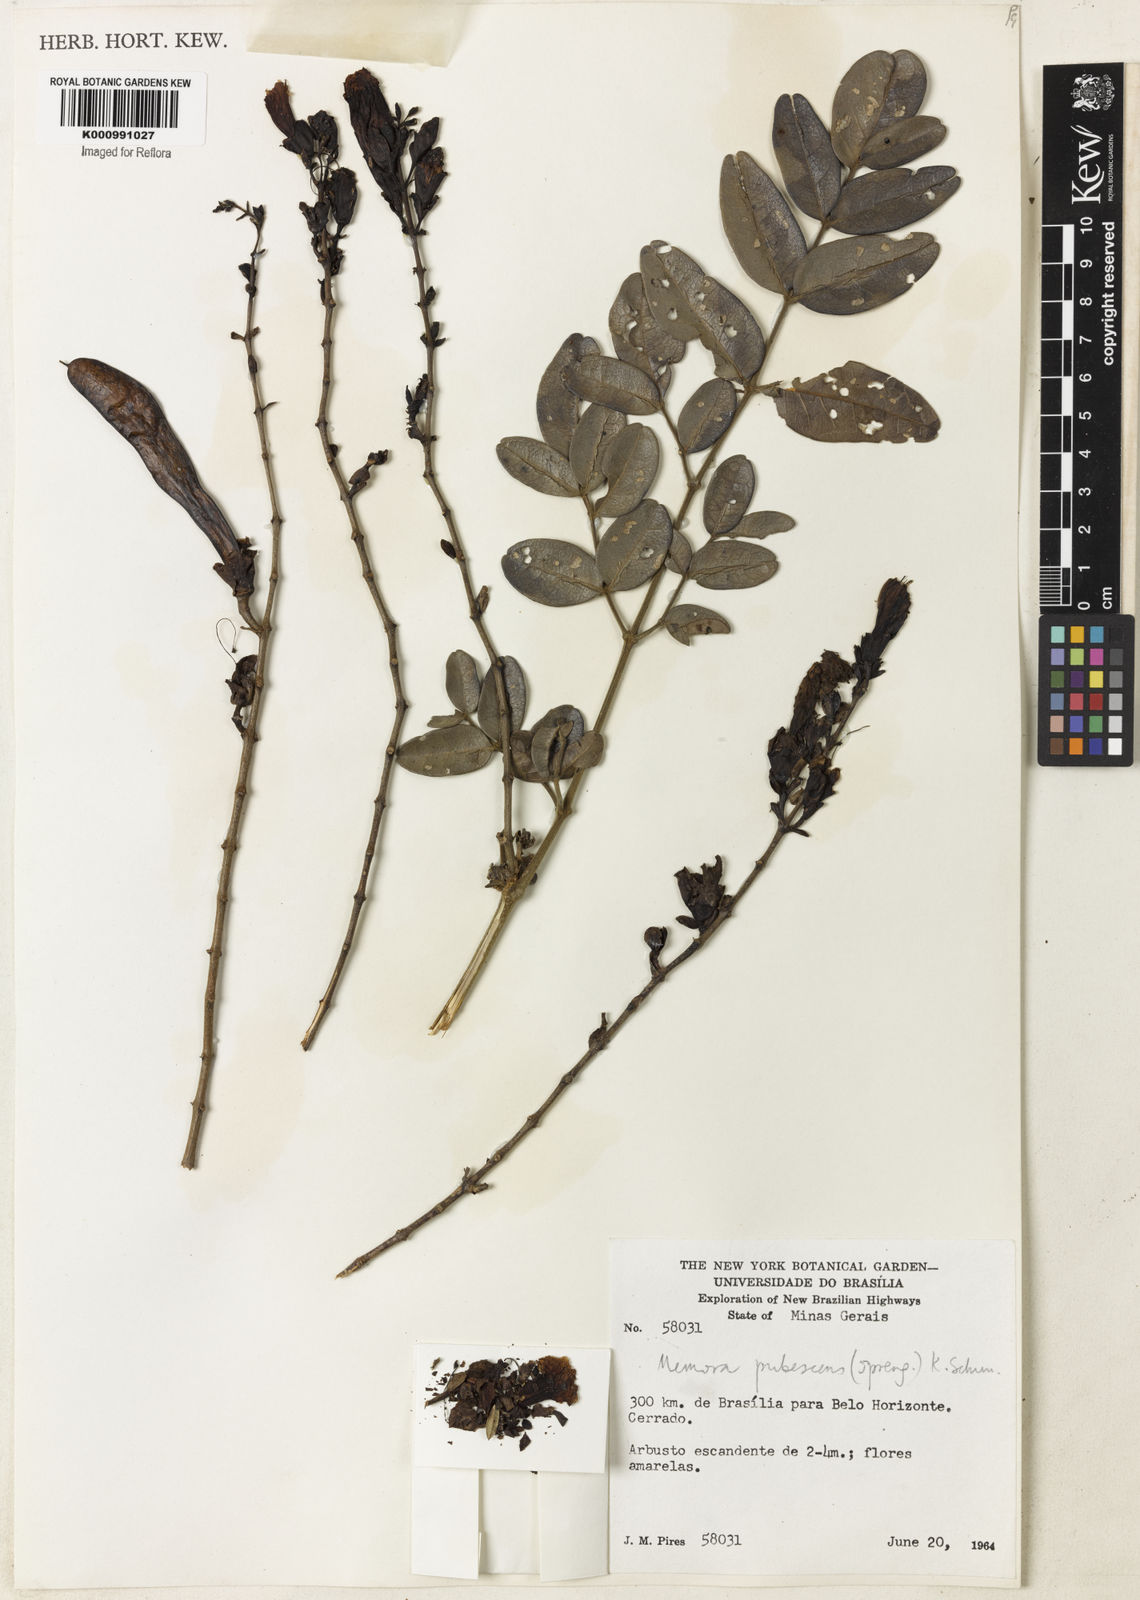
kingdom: Plantae
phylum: Tracheophyta
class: Magnoliopsida
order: Lamiales
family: Bignoniaceae
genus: Adenocalymma
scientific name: Adenocalymma pubescens
